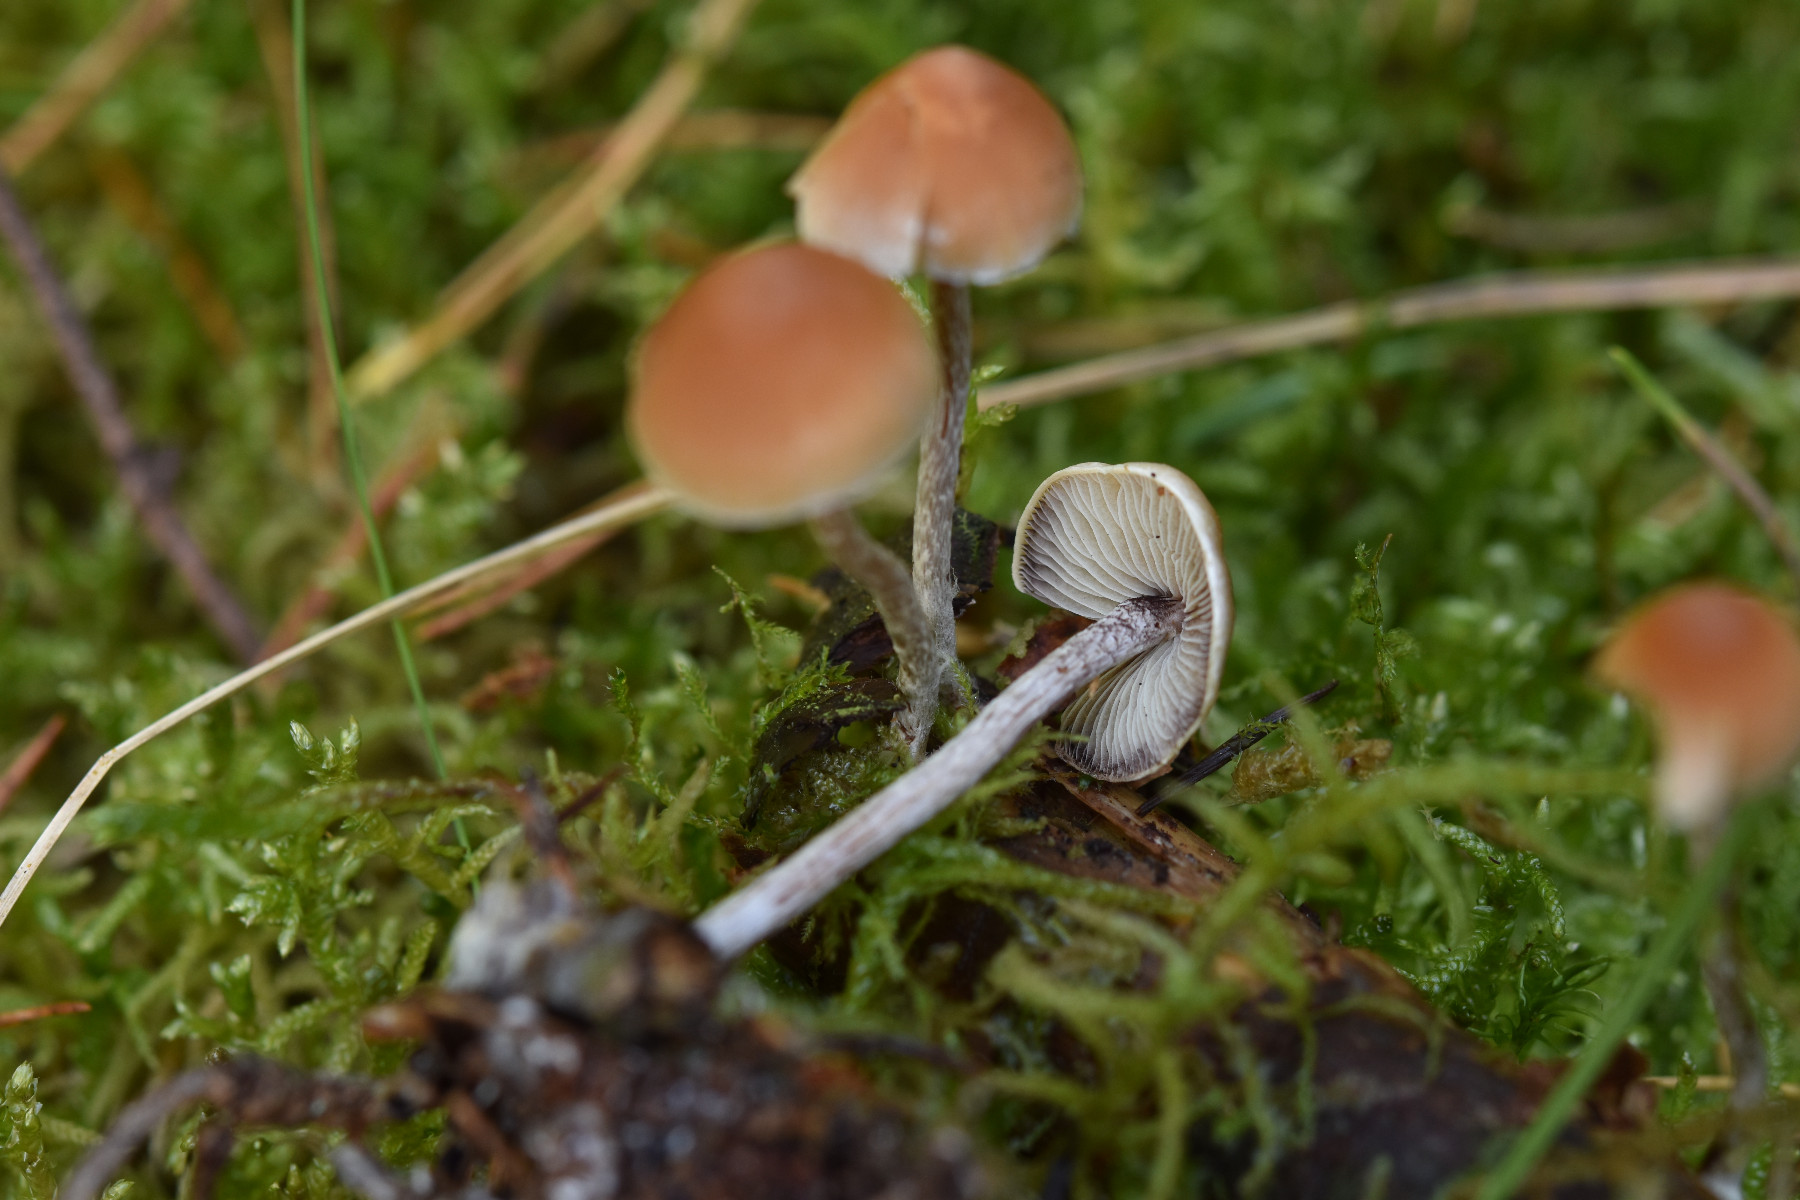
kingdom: Fungi
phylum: Basidiomycota
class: Agaricomycetes
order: Agaricales
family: Strophariaceae
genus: Hypholoma
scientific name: Hypholoma marginatum
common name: enlig svovlhat
